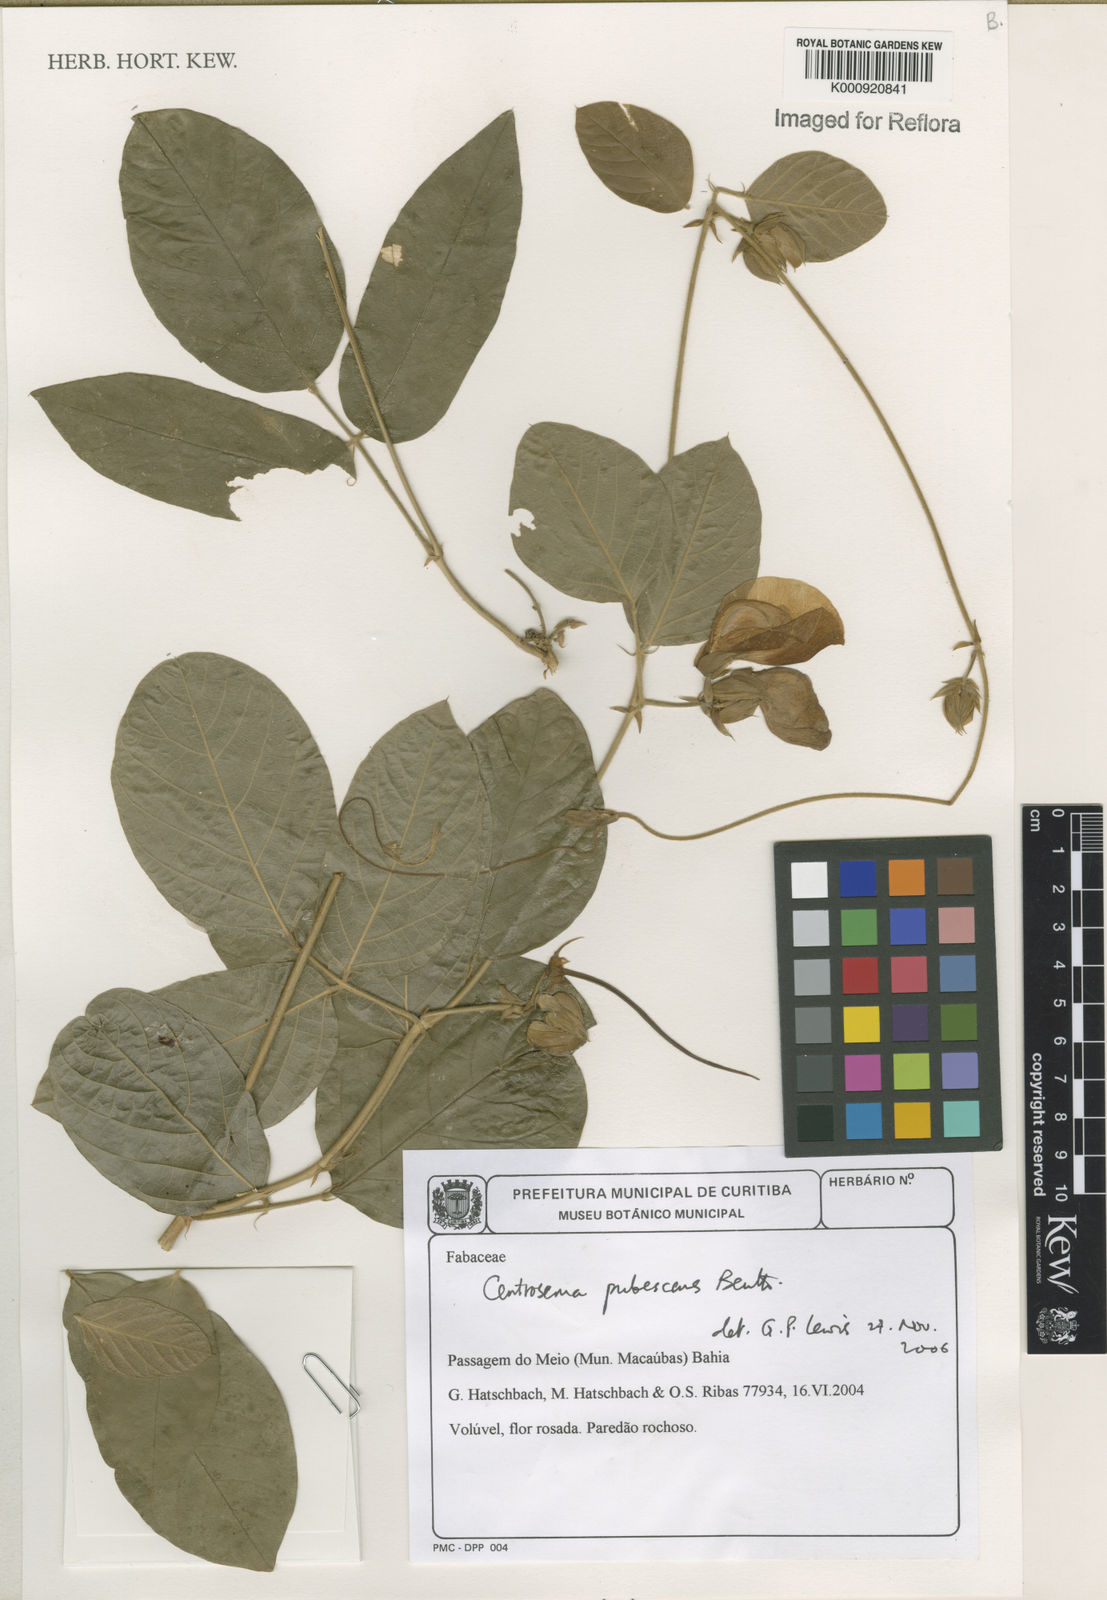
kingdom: Plantae
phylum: Tracheophyta
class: Magnoliopsida
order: Fabales
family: Fabaceae
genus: Centrosema
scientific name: Centrosema pubescens
